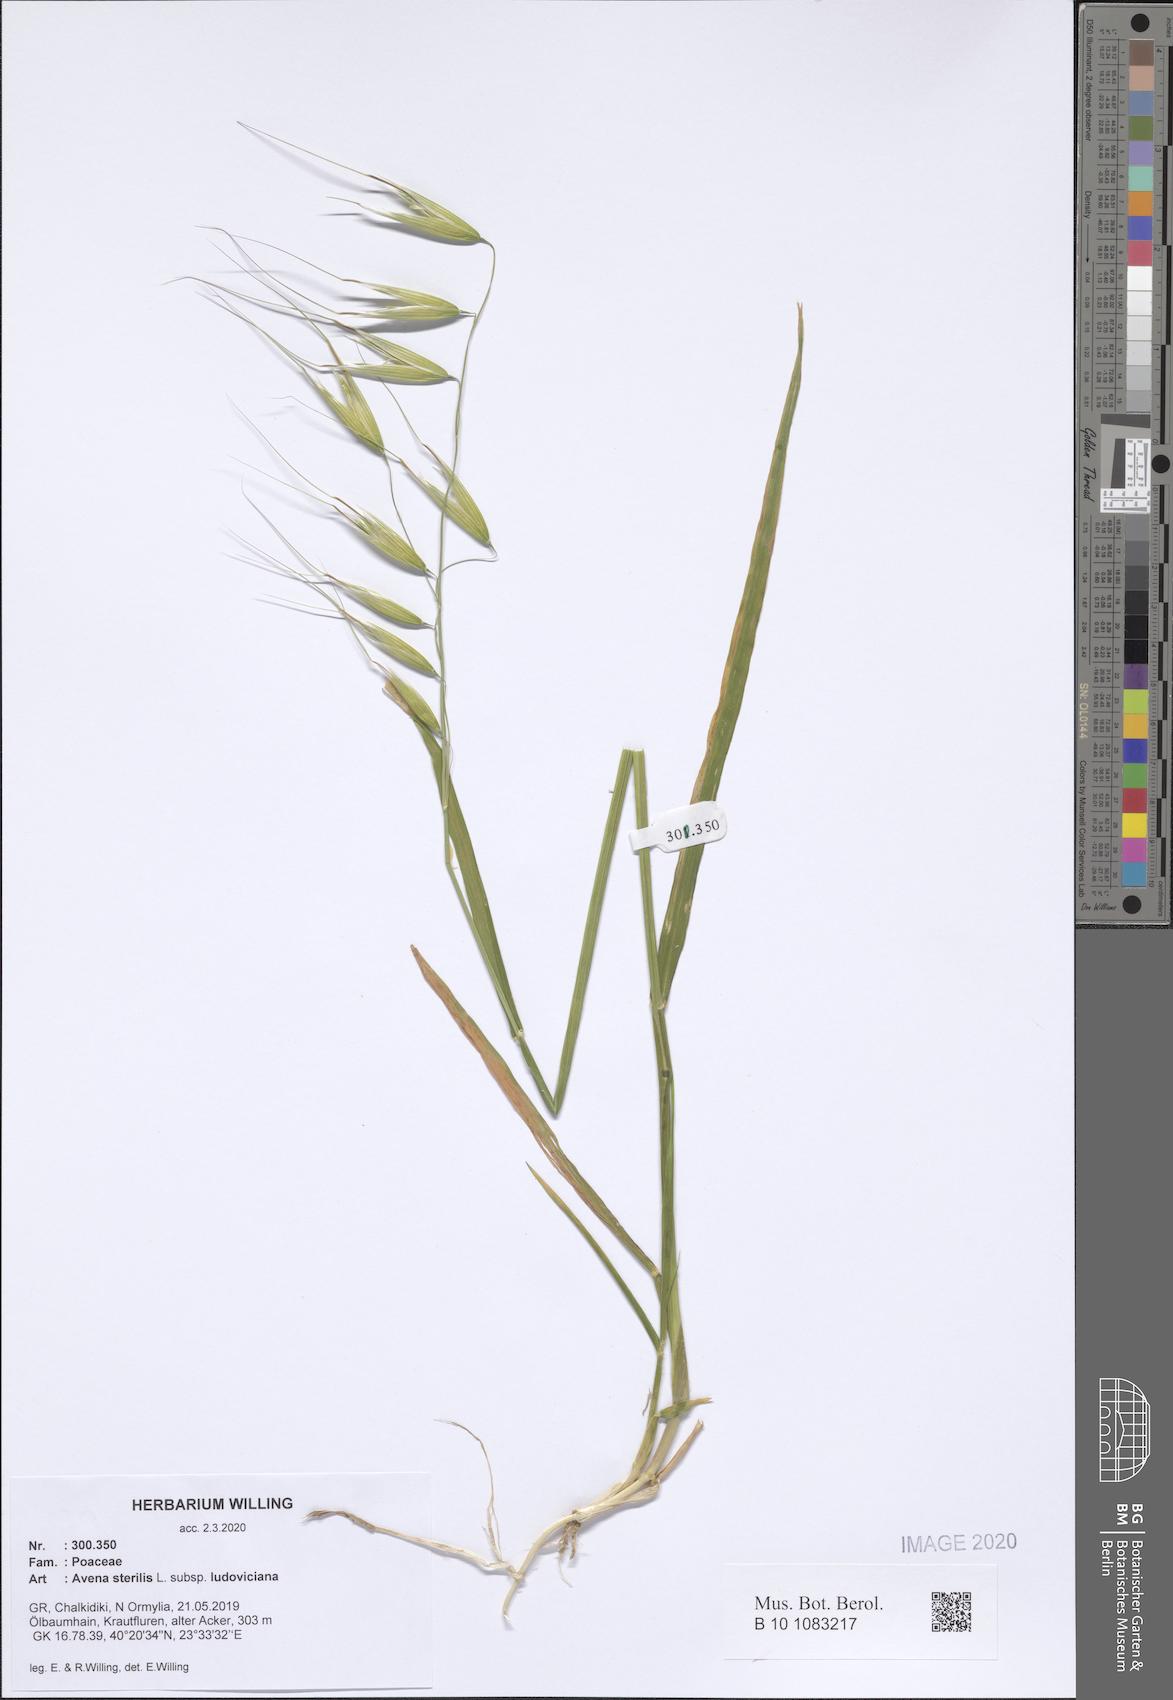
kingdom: Plantae
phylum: Tracheophyta
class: Liliopsida
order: Poales
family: Poaceae
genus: Avena
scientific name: Avena sterilis
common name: Animated oat
